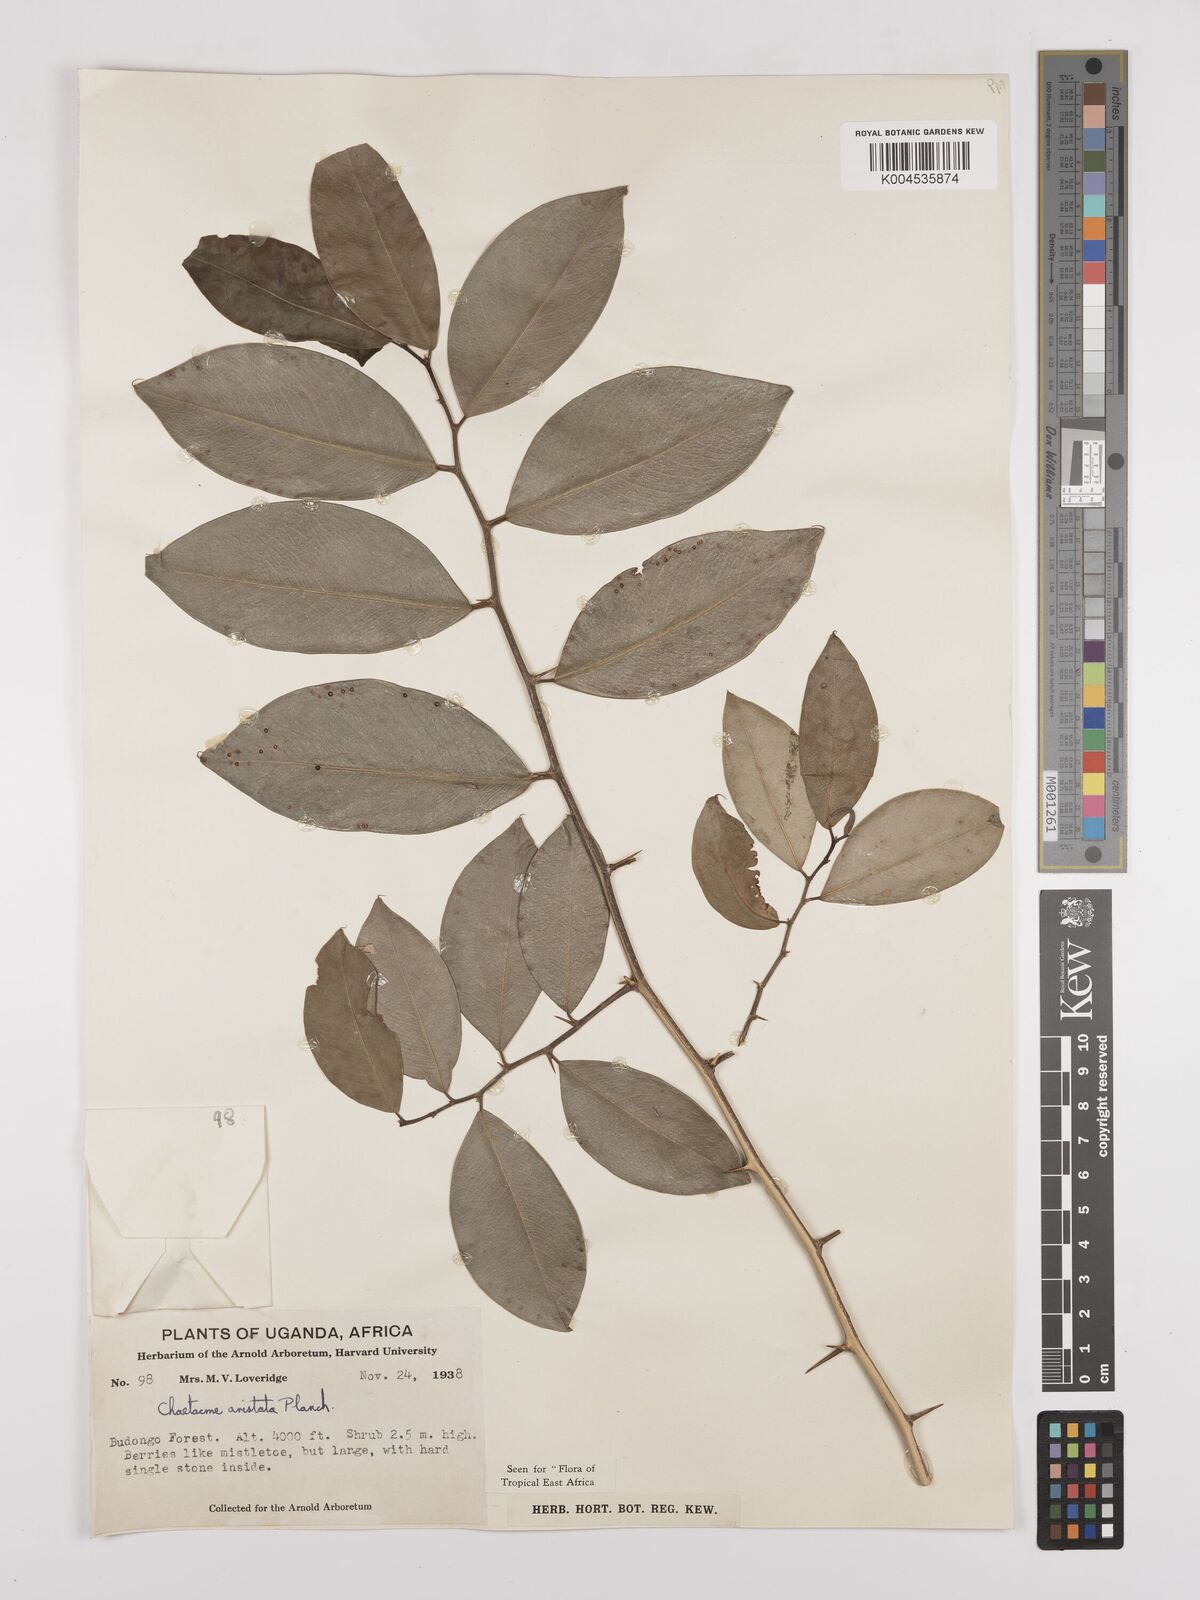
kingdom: Plantae
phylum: Tracheophyta
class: Magnoliopsida
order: Rosales
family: Cannabaceae
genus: Chaetachme
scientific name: Chaetachme aristata
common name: Thorny elm
